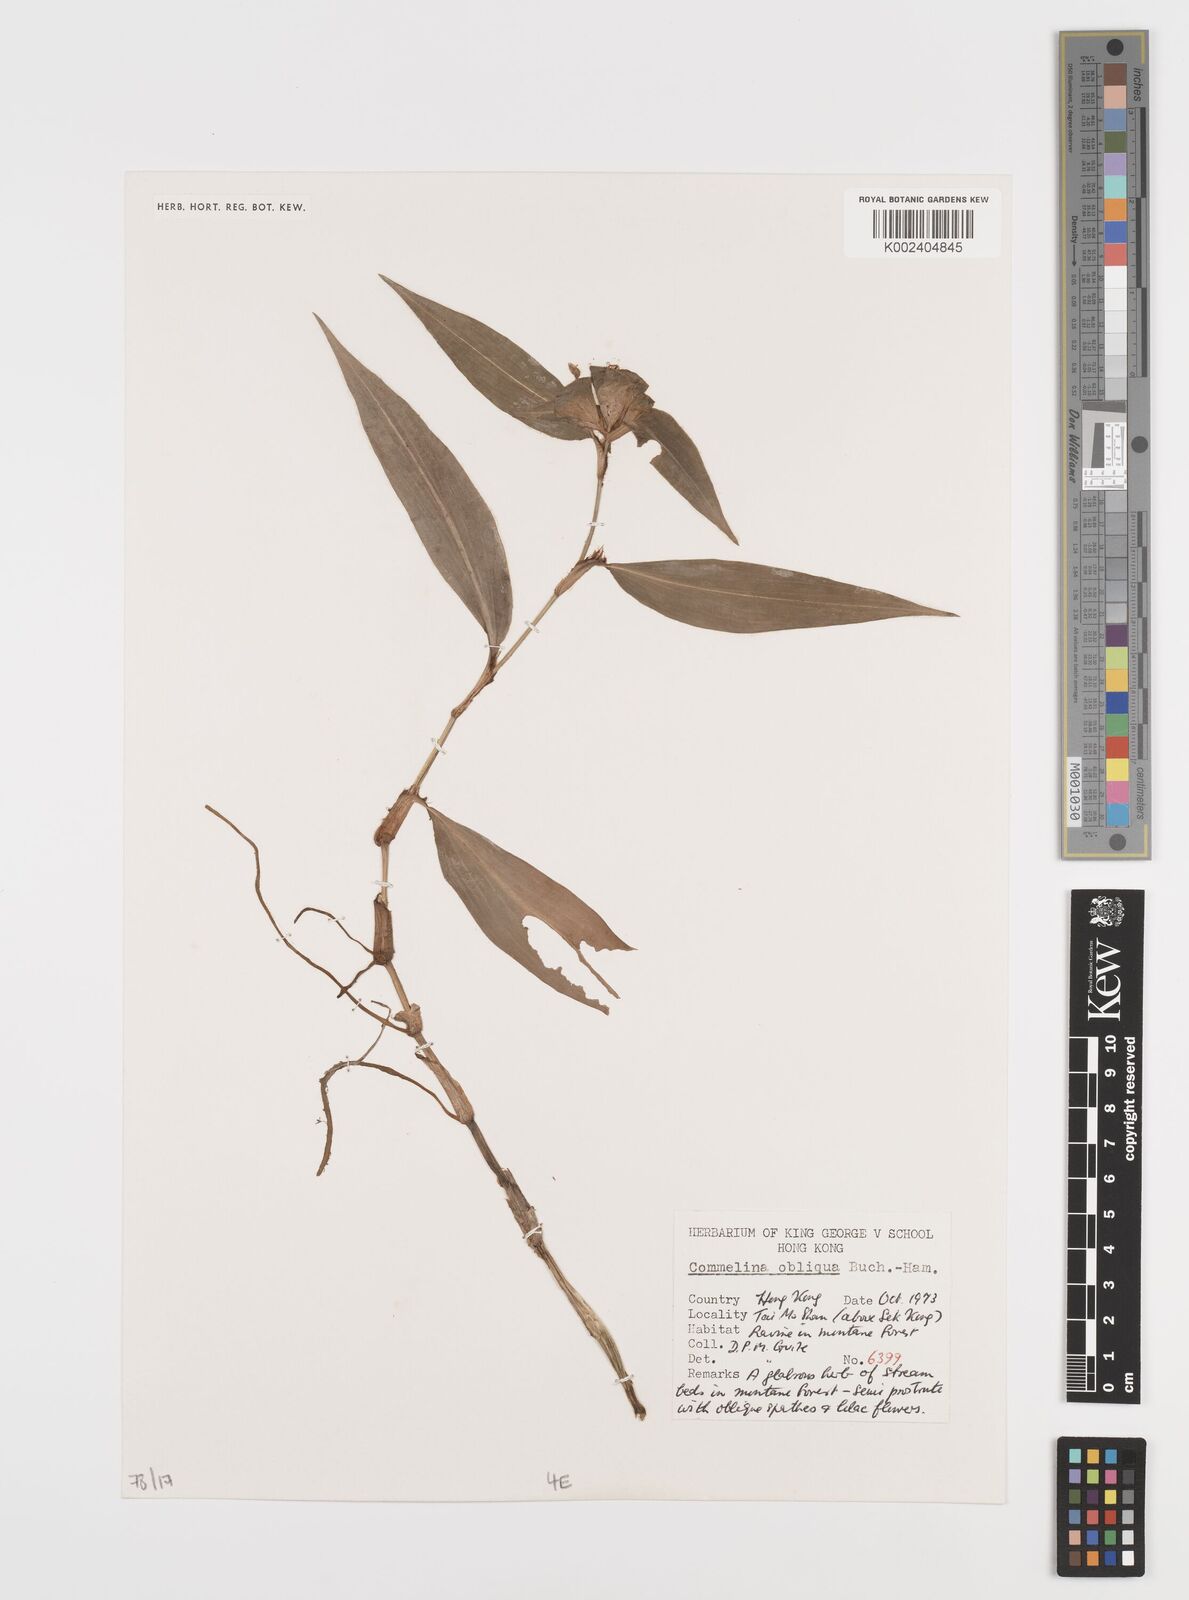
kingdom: Plantae
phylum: Tracheophyta
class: Liliopsida
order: Commelinales
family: Commelinaceae
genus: Commelina
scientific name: Commelina obliqua
